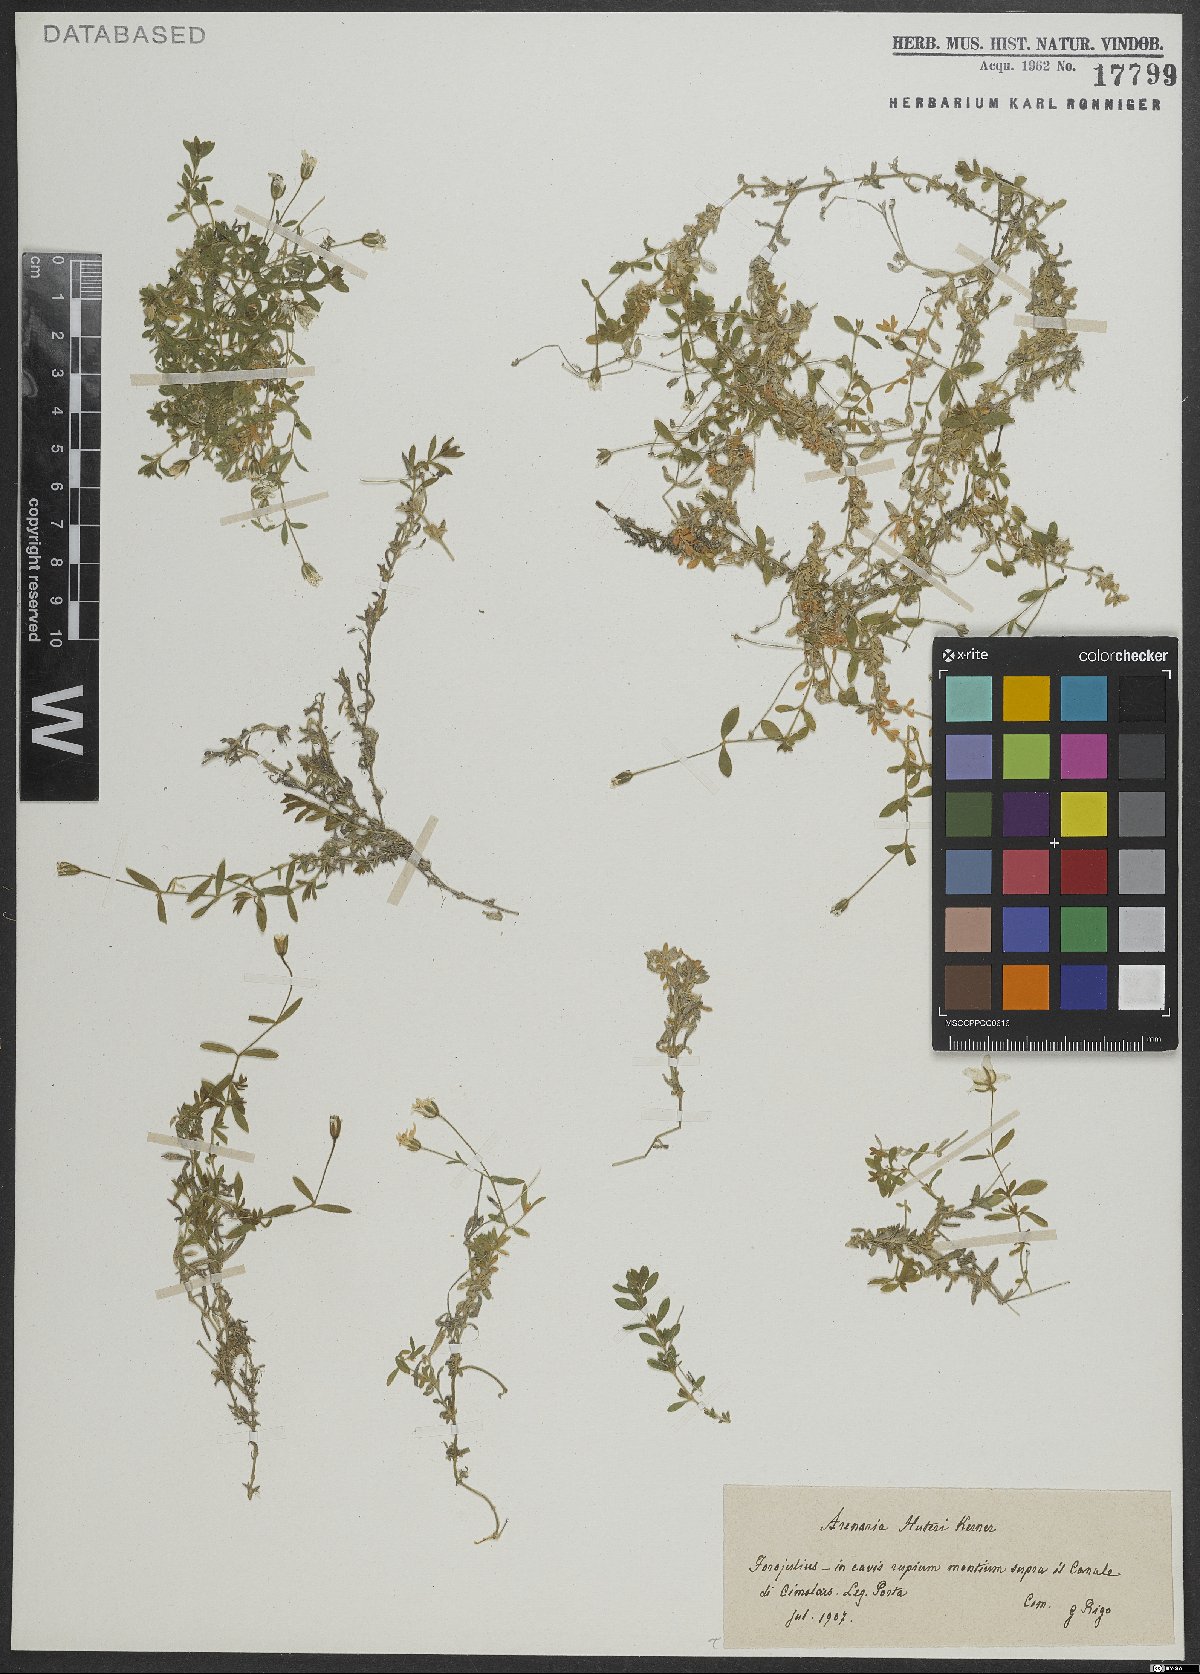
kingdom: Plantae
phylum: Tracheophyta
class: Magnoliopsida
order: Caryophyllales
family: Caryophyllaceae
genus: Arenaria
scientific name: Arenaria huteri
